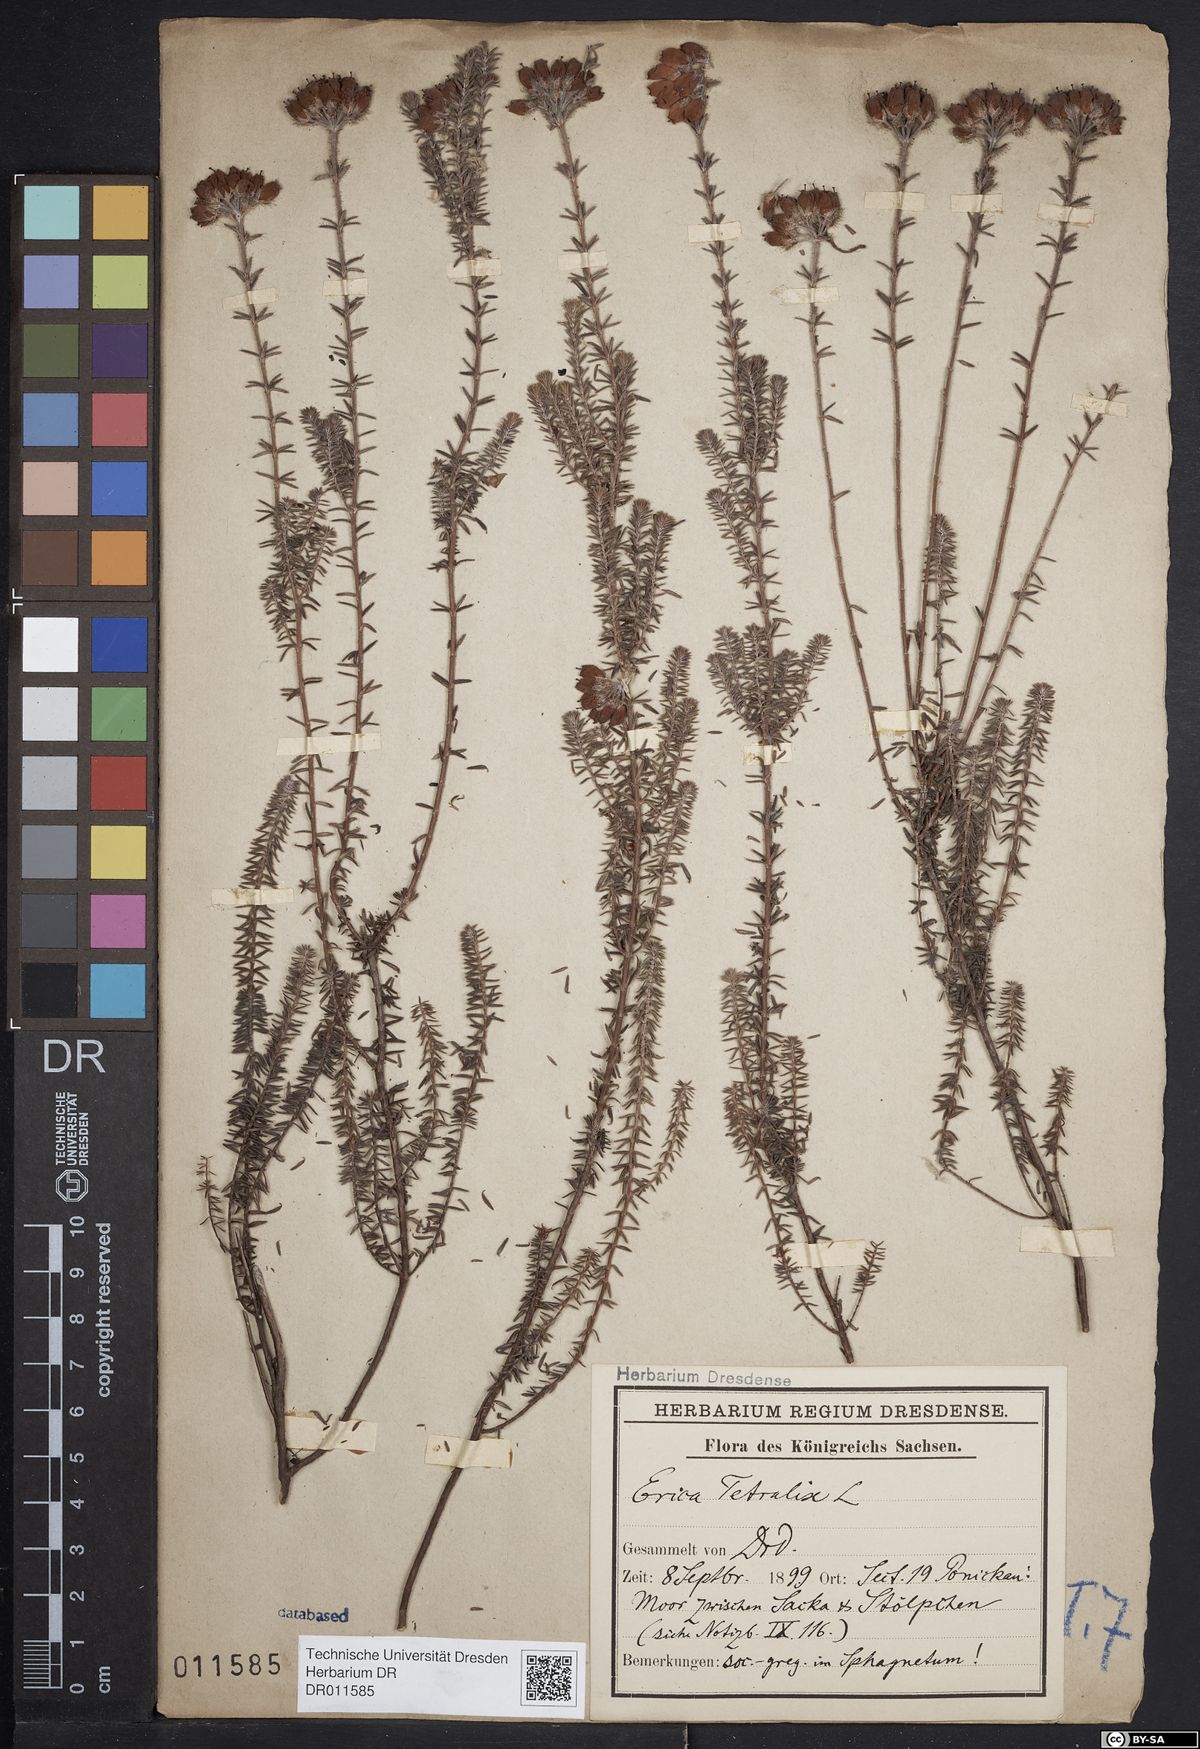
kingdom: Plantae
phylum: Tracheophyta
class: Magnoliopsida
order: Ericales
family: Ericaceae
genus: Erica
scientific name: Erica tetralix
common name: Cross-leaved heath
